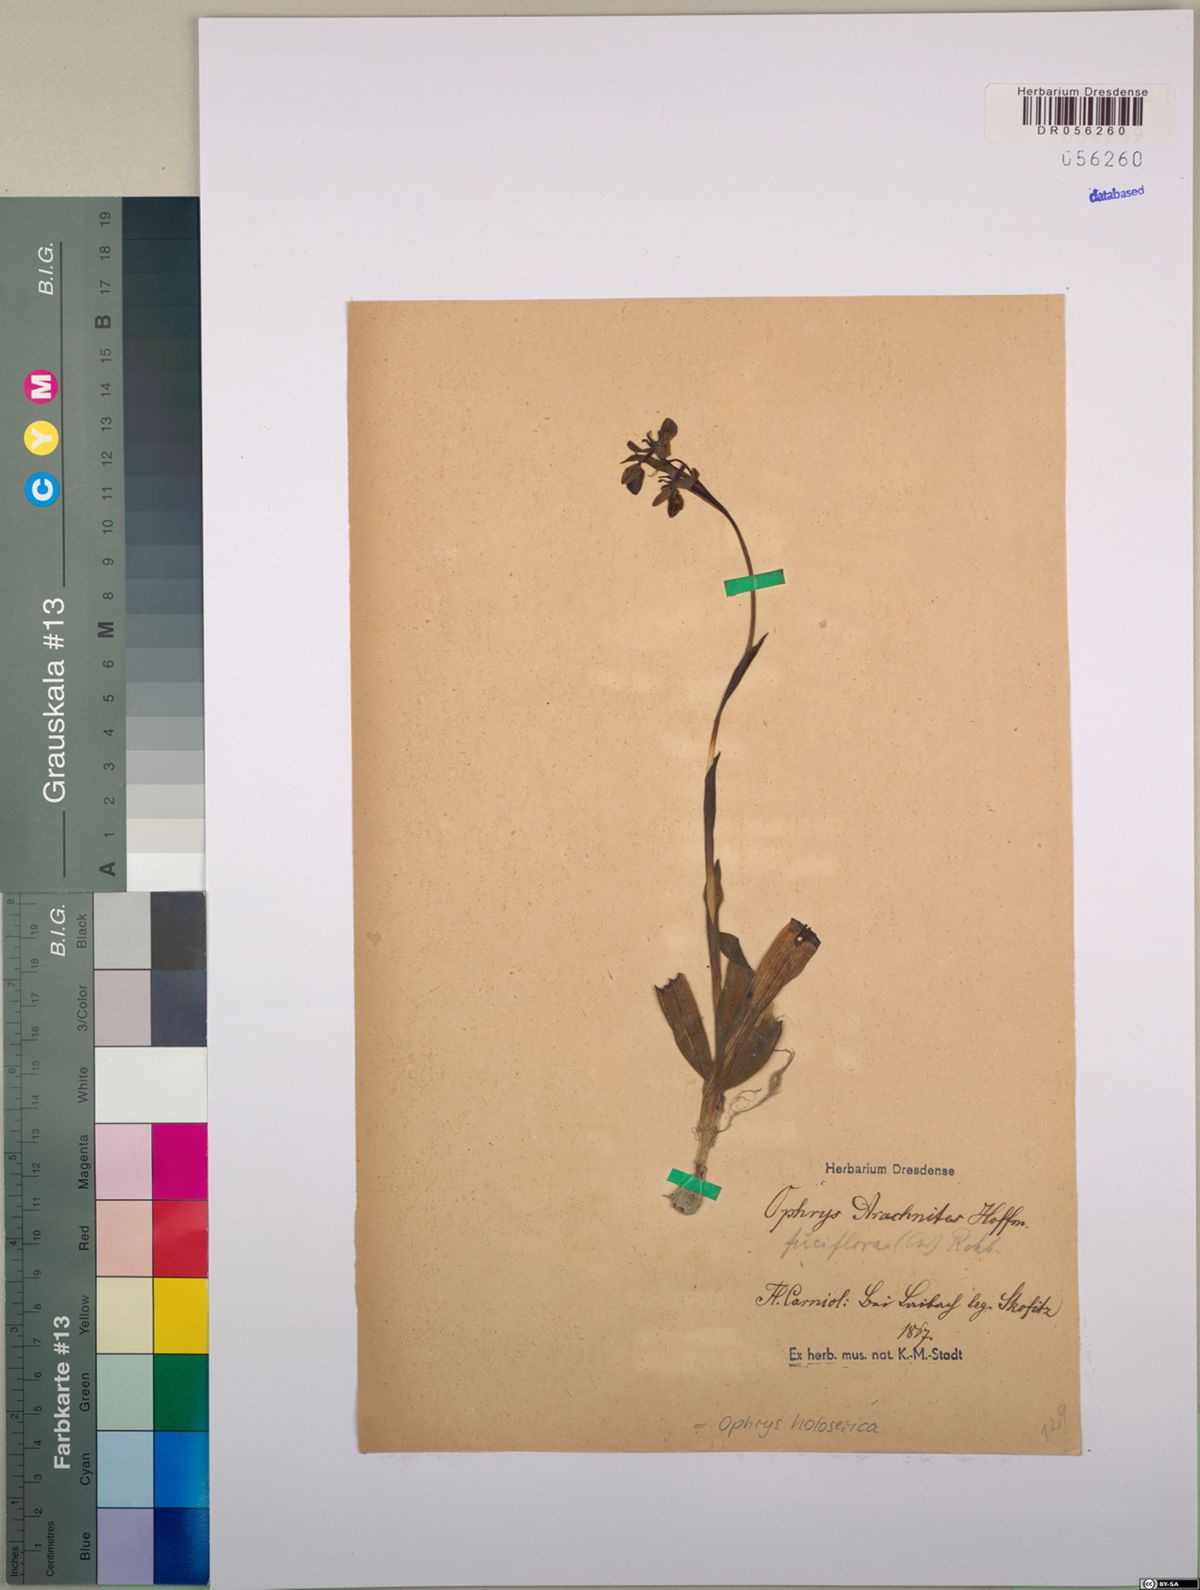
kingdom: Plantae
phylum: Tracheophyta
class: Liliopsida
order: Asparagales
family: Orchidaceae
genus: Ophrys
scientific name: Ophrys holosericea
